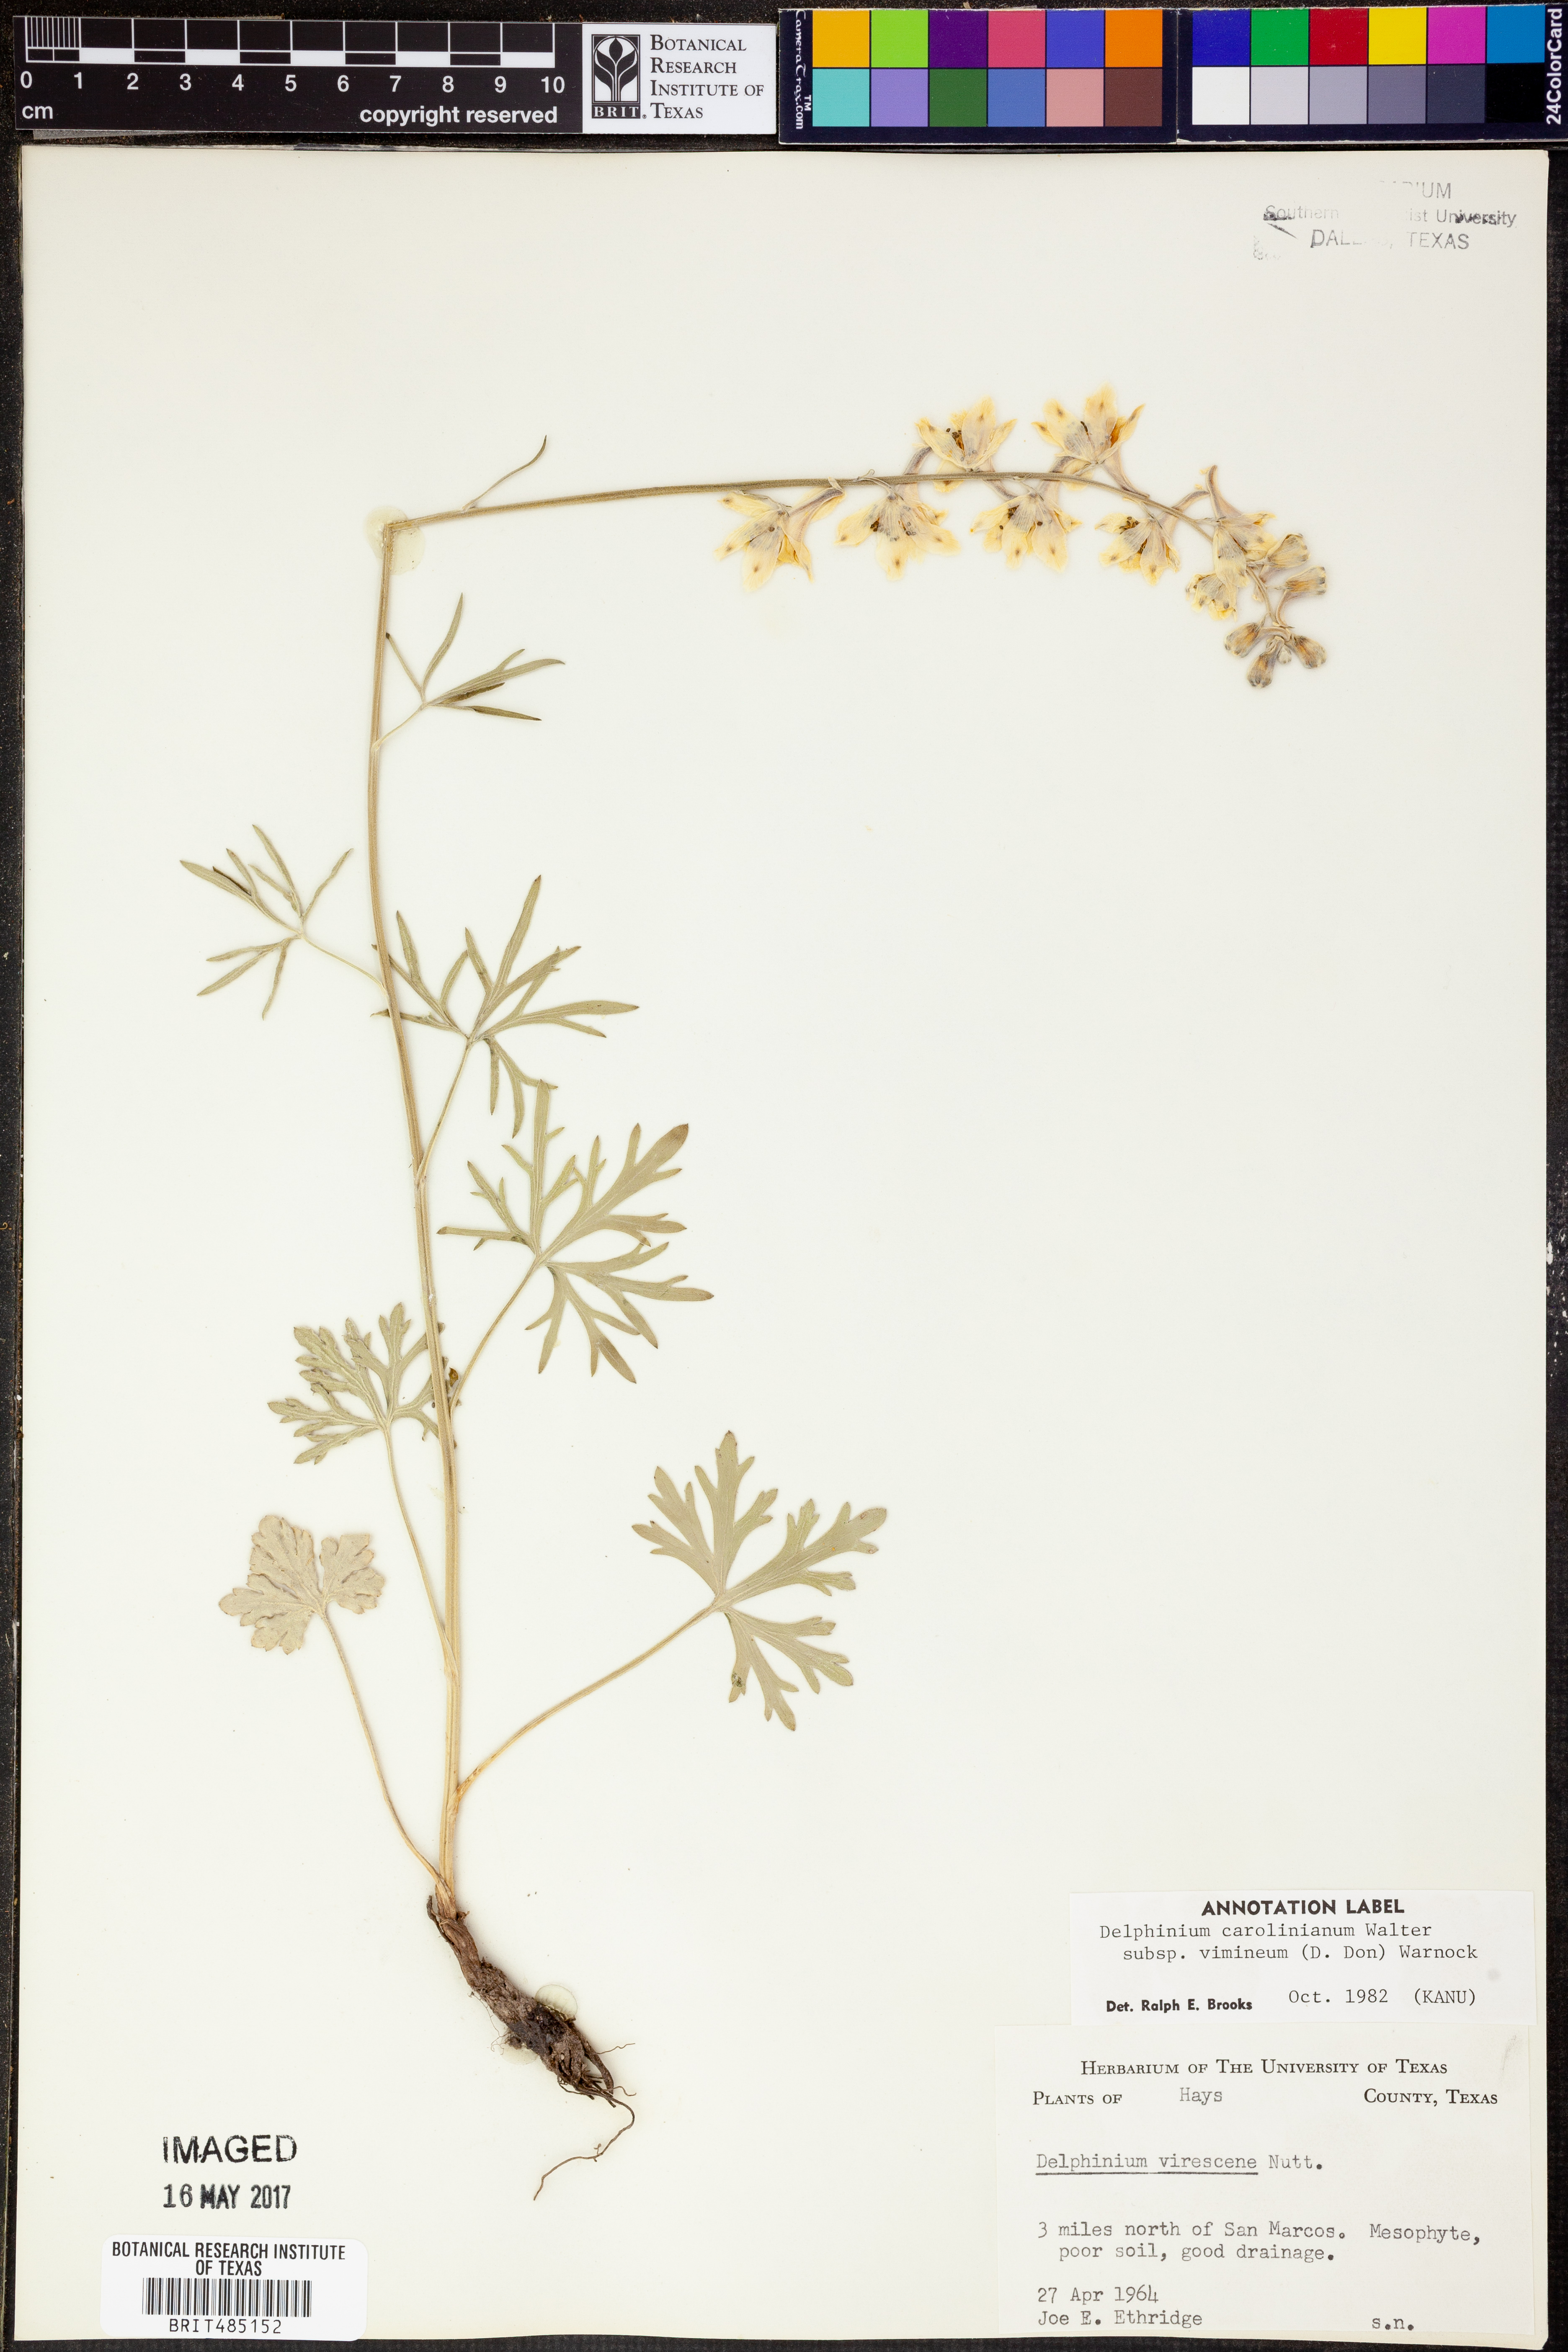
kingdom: Plantae
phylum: Tracheophyta
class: Magnoliopsida
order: Ranunculales
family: Ranunculaceae
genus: Delphinium
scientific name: Delphinium carolinianum
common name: Carolina larkspur
